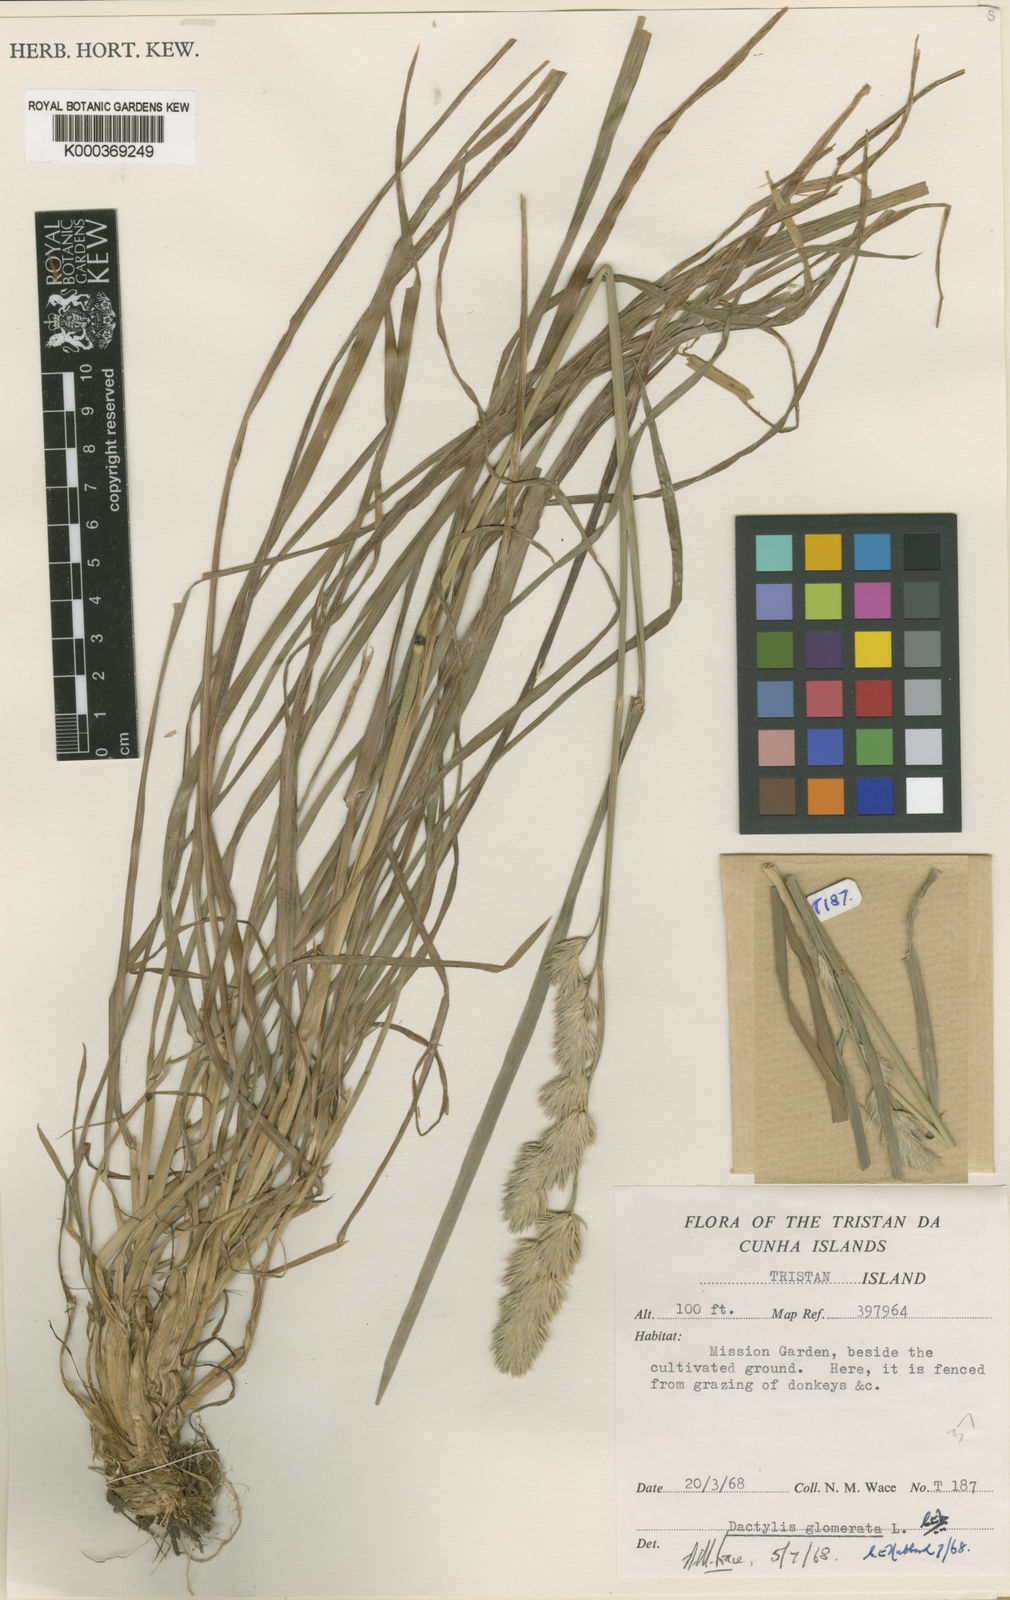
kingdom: Plantae
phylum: Tracheophyta
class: Liliopsida
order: Poales
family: Poaceae
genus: Dactylis
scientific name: Dactylis glomerata
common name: Orchardgrass
